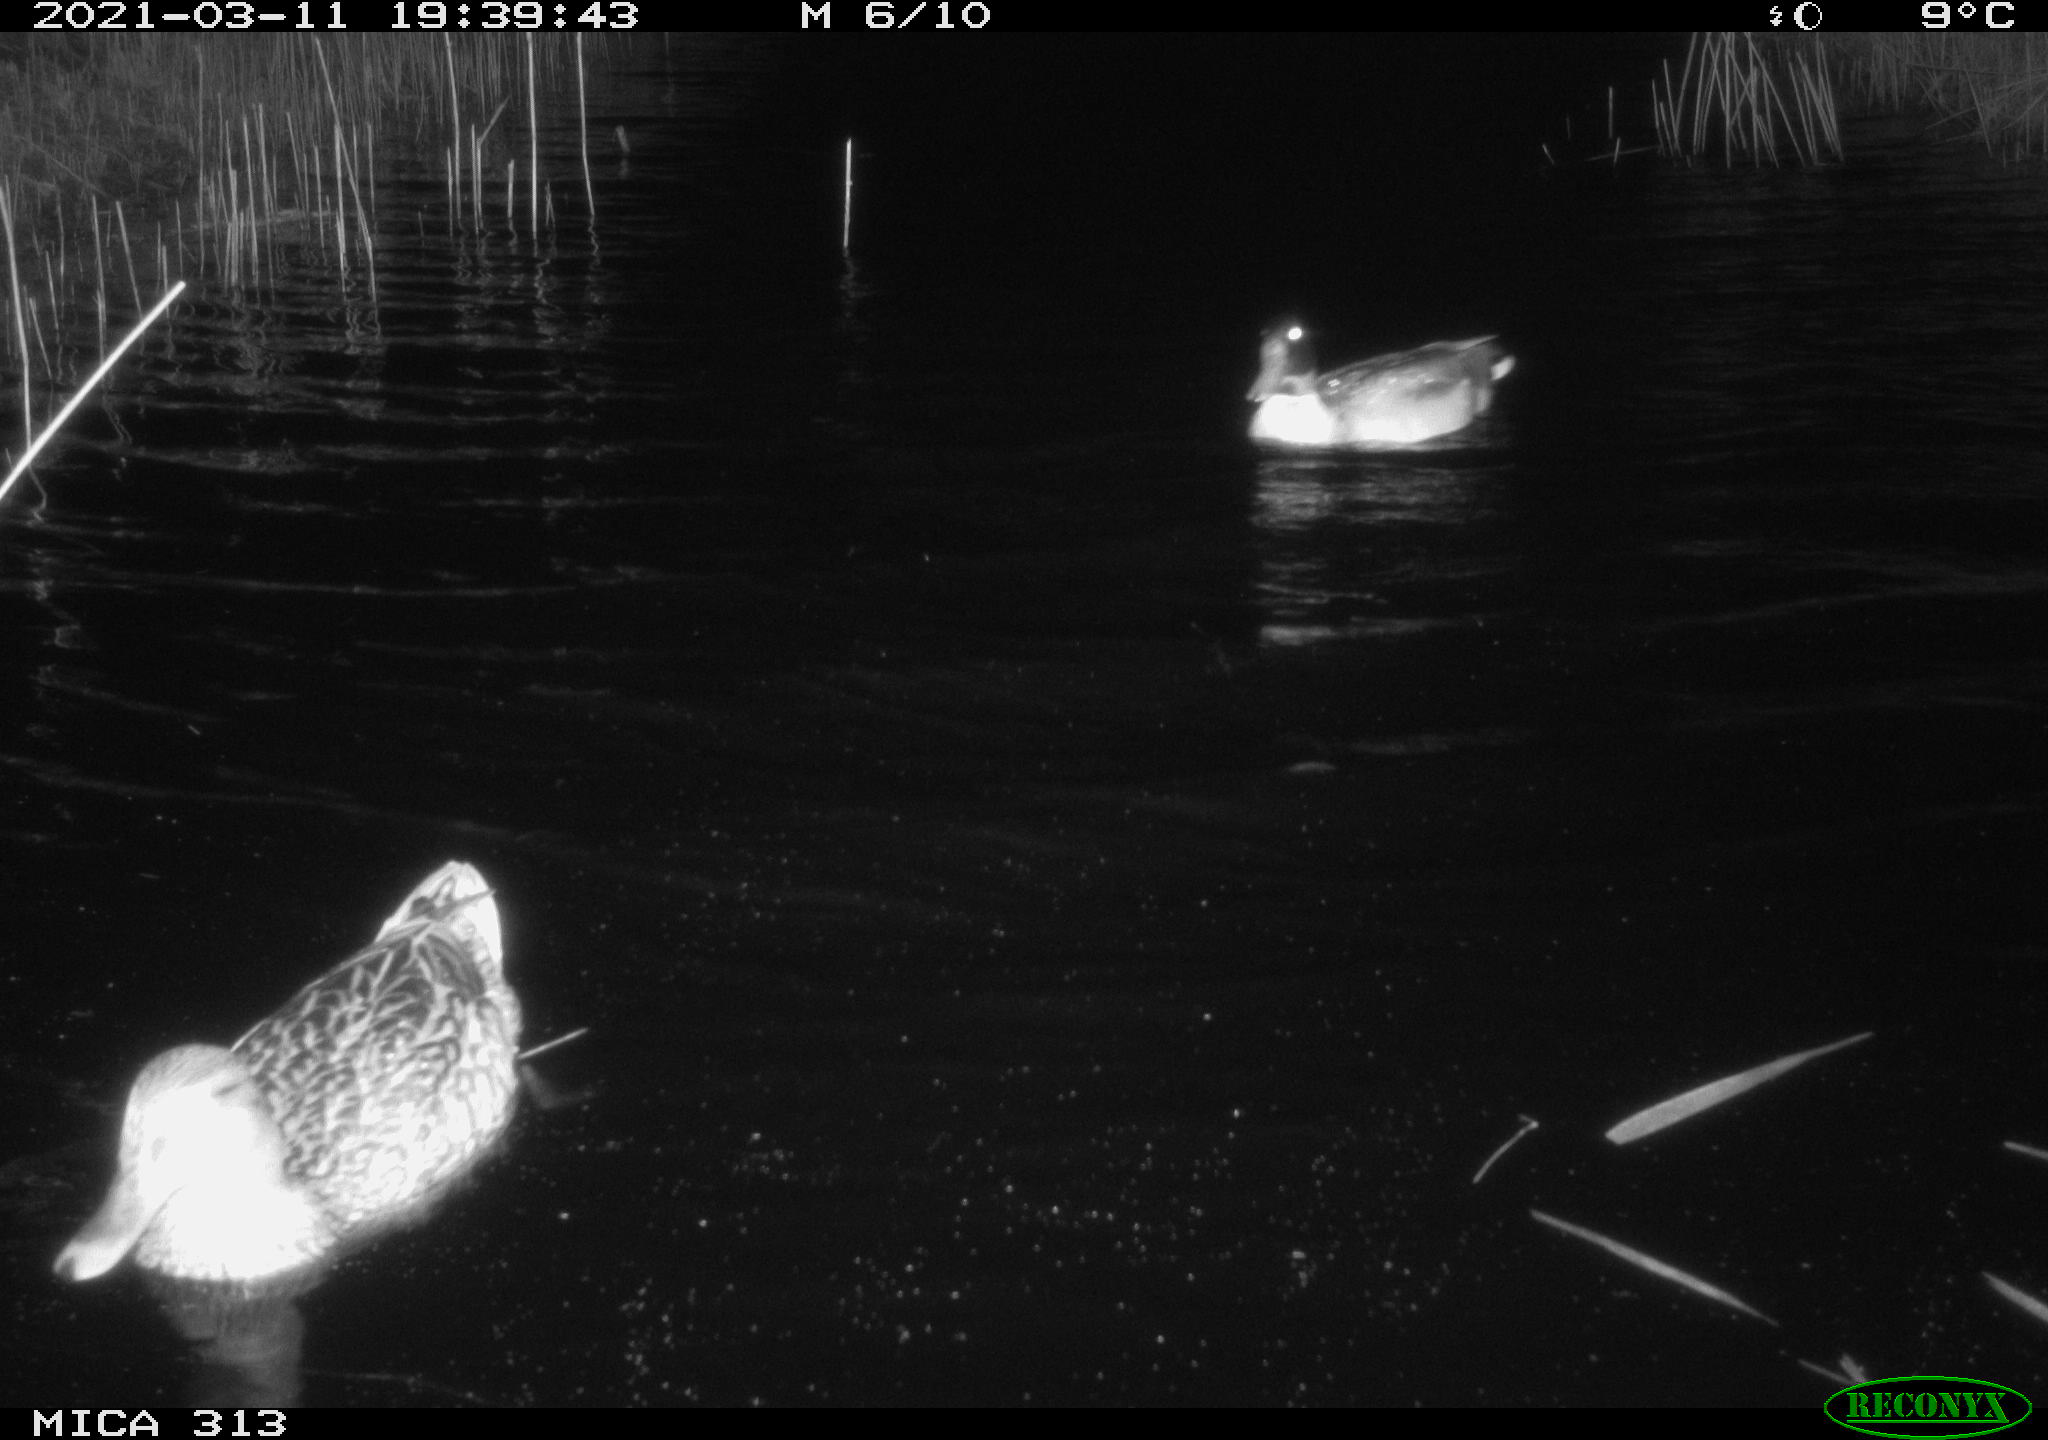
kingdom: Animalia
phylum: Chordata
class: Aves
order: Anseriformes
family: Anatidae
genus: Anas
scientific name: Anas platyrhynchos
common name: Mallard
